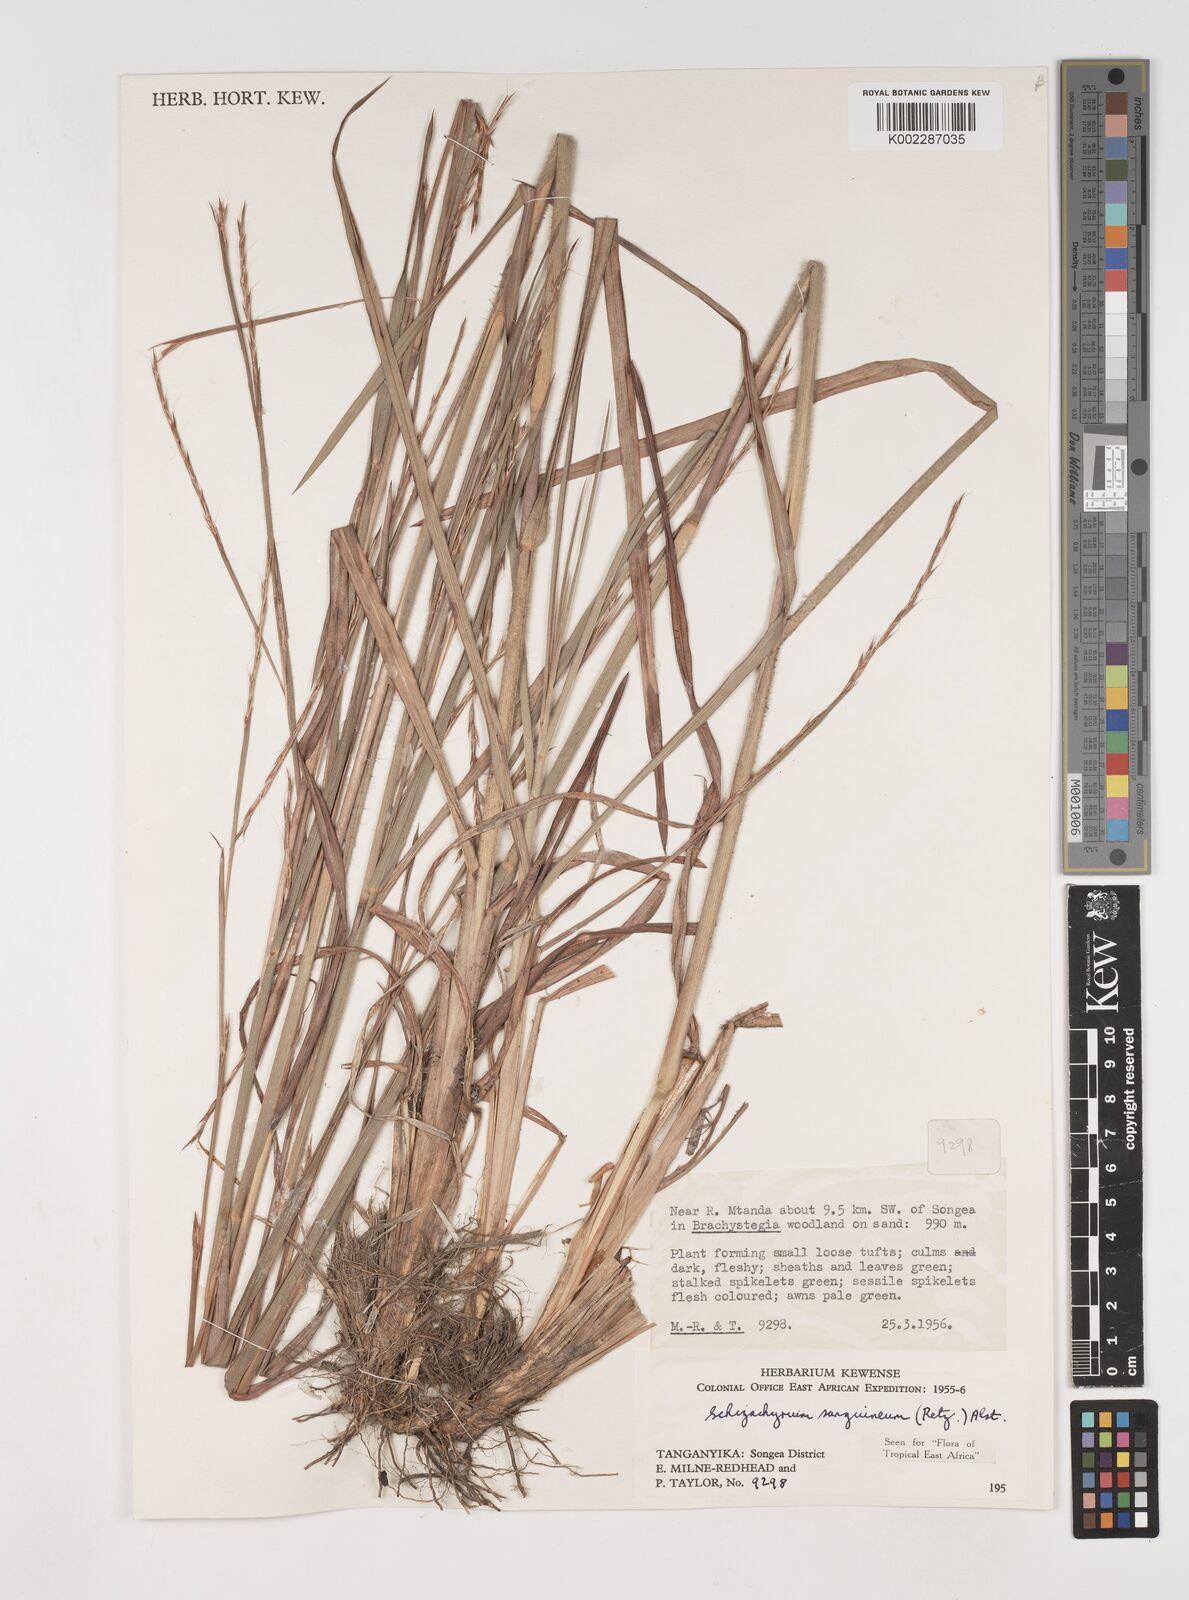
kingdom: Plantae
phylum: Tracheophyta
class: Liliopsida
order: Poales
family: Poaceae
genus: Schizachyrium
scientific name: Schizachyrium sanguineum
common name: Crimson bluestem
